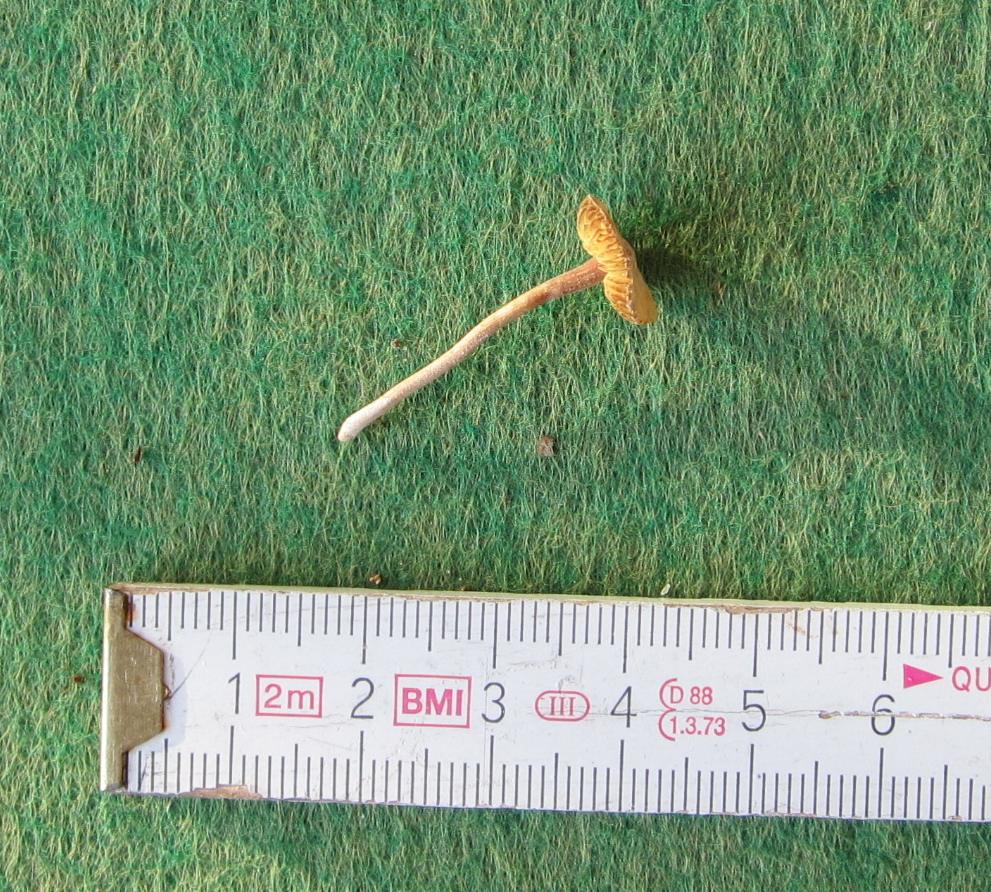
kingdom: Fungi
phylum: Basidiomycota
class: Agaricomycetes
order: Agaricales
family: Inocybaceae
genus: Inocybe
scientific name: Inocybe petiginosa
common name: liden trævlhat
